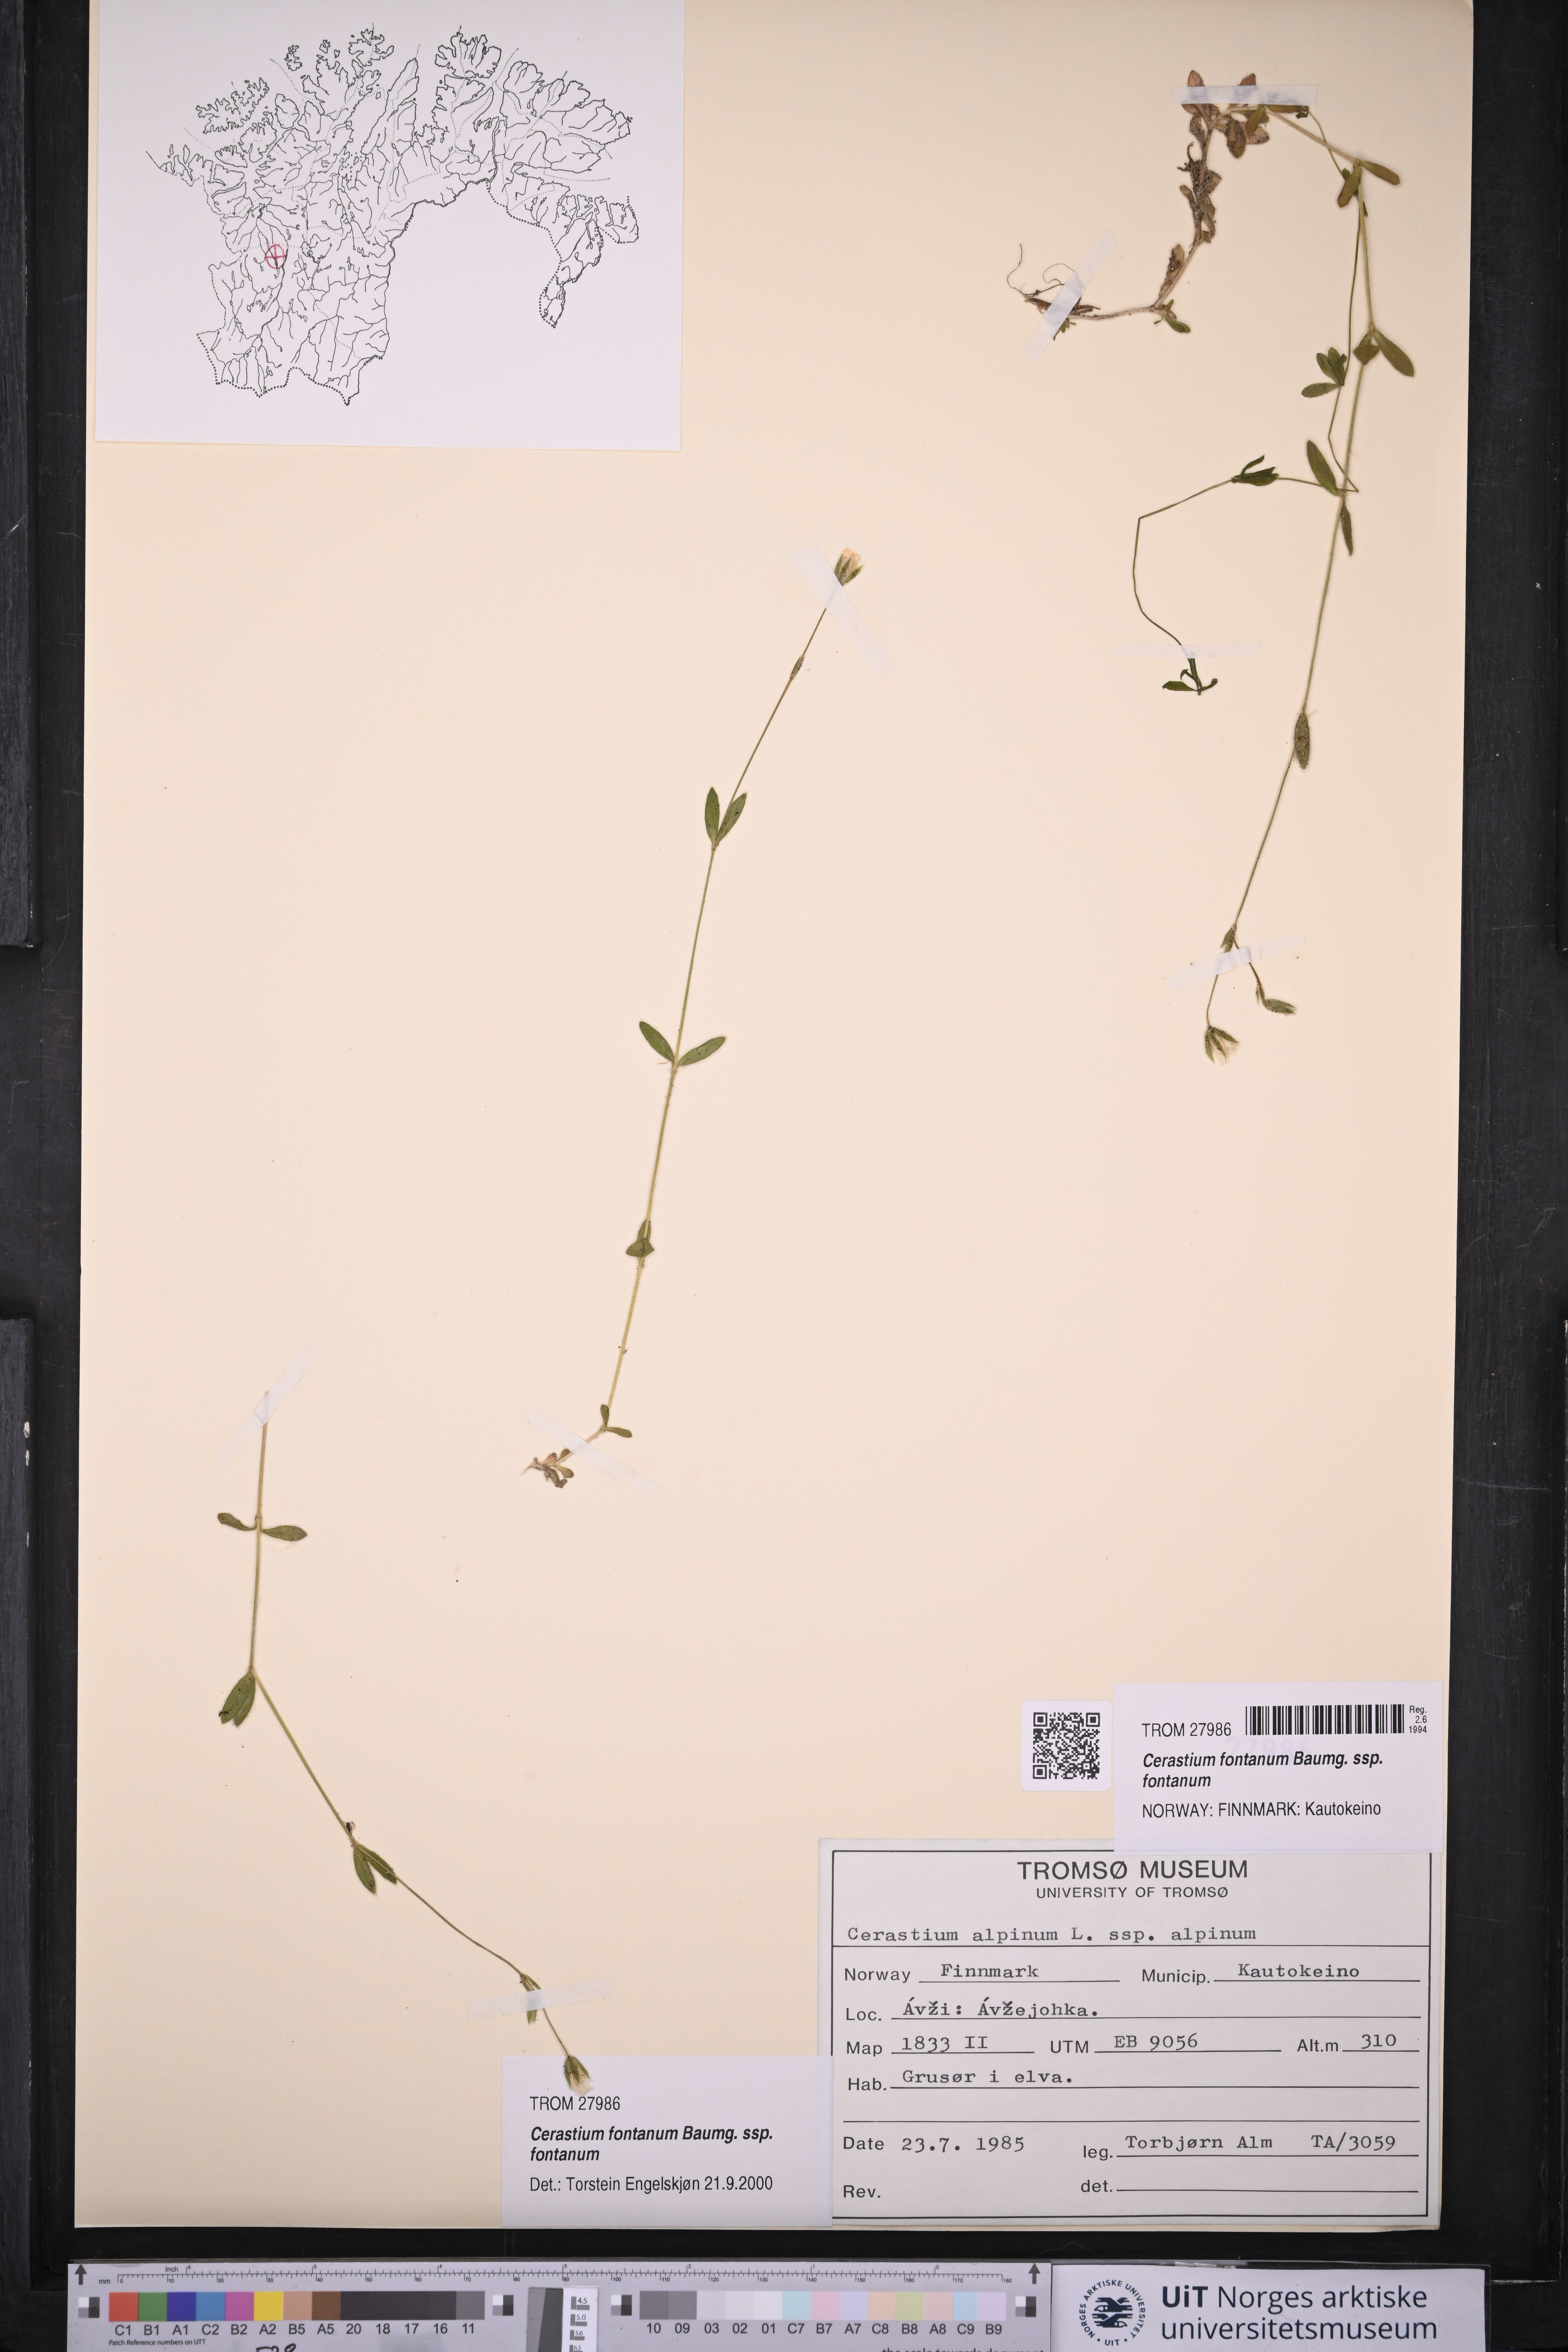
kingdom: Plantae
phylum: Tracheophyta
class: Magnoliopsida
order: Caryophyllales
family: Caryophyllaceae
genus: Cerastium
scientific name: Cerastium fontanum
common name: Common mouse-ear
